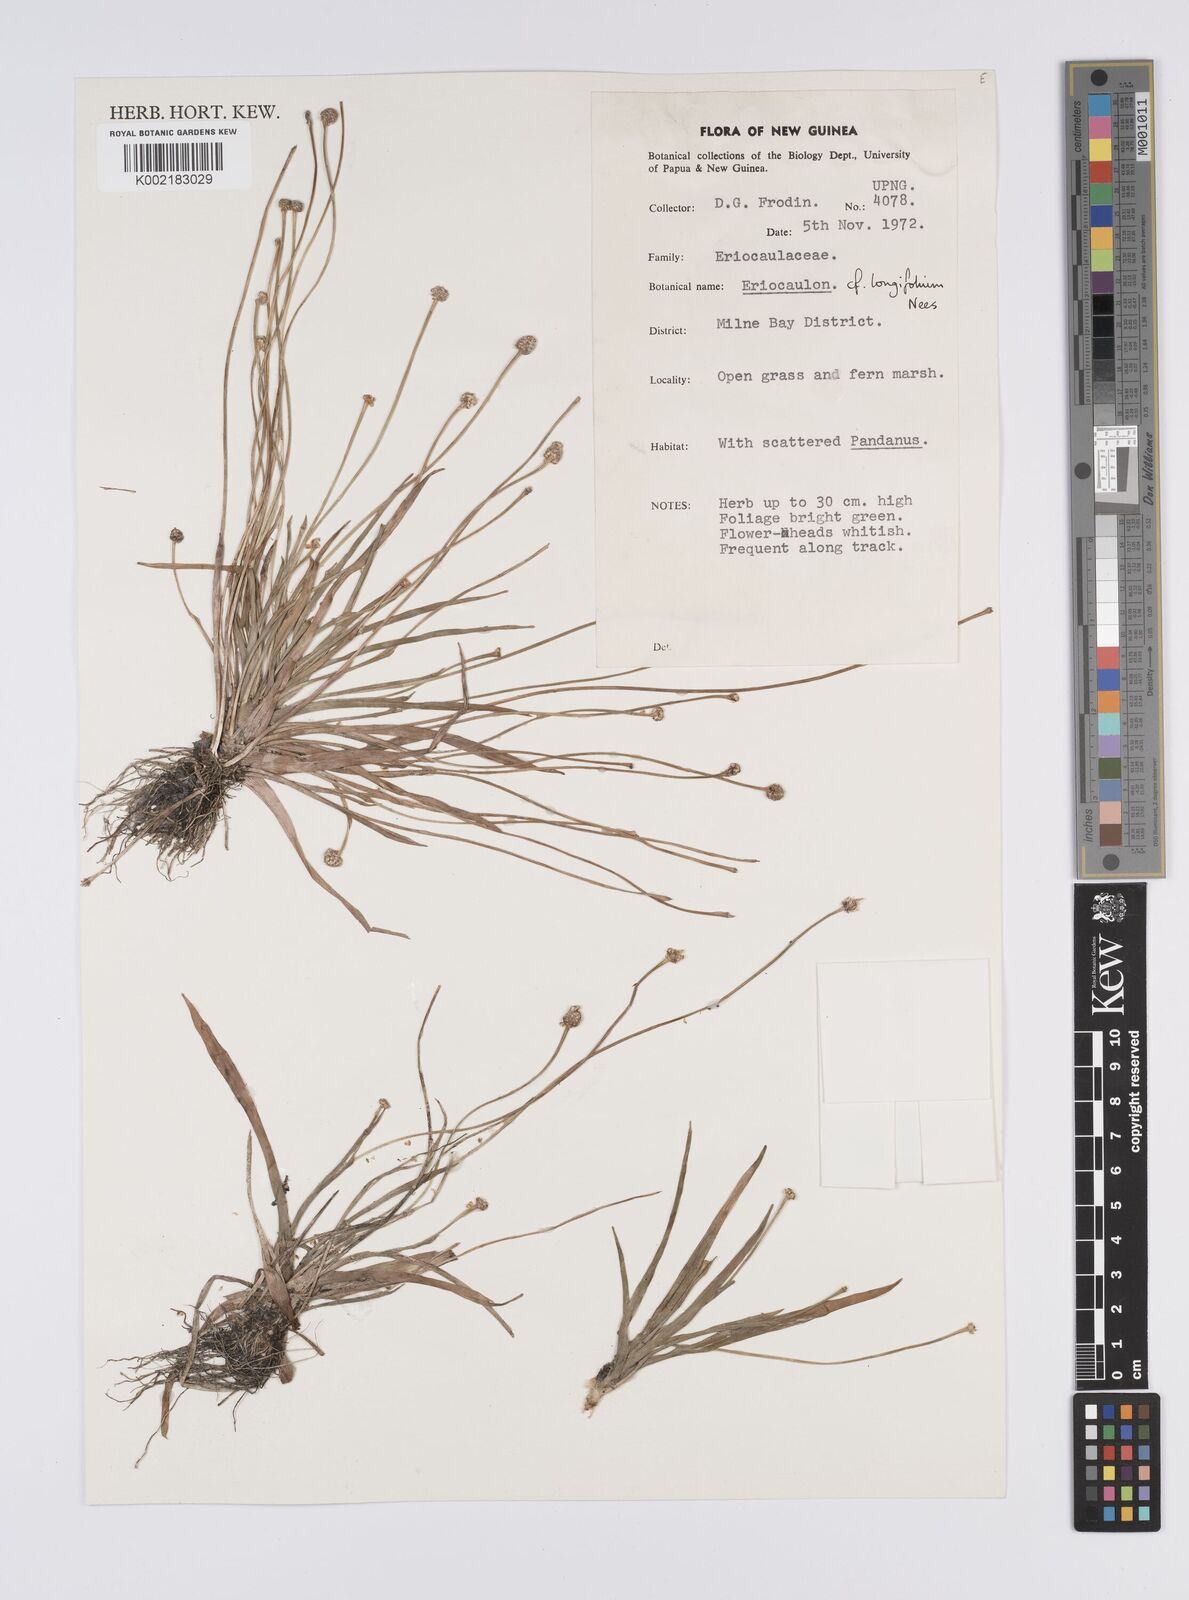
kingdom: Plantae
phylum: Tracheophyta
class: Liliopsida
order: Poales
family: Eriocaulaceae
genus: Eriocaulon
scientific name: Eriocaulon willdenovianum
